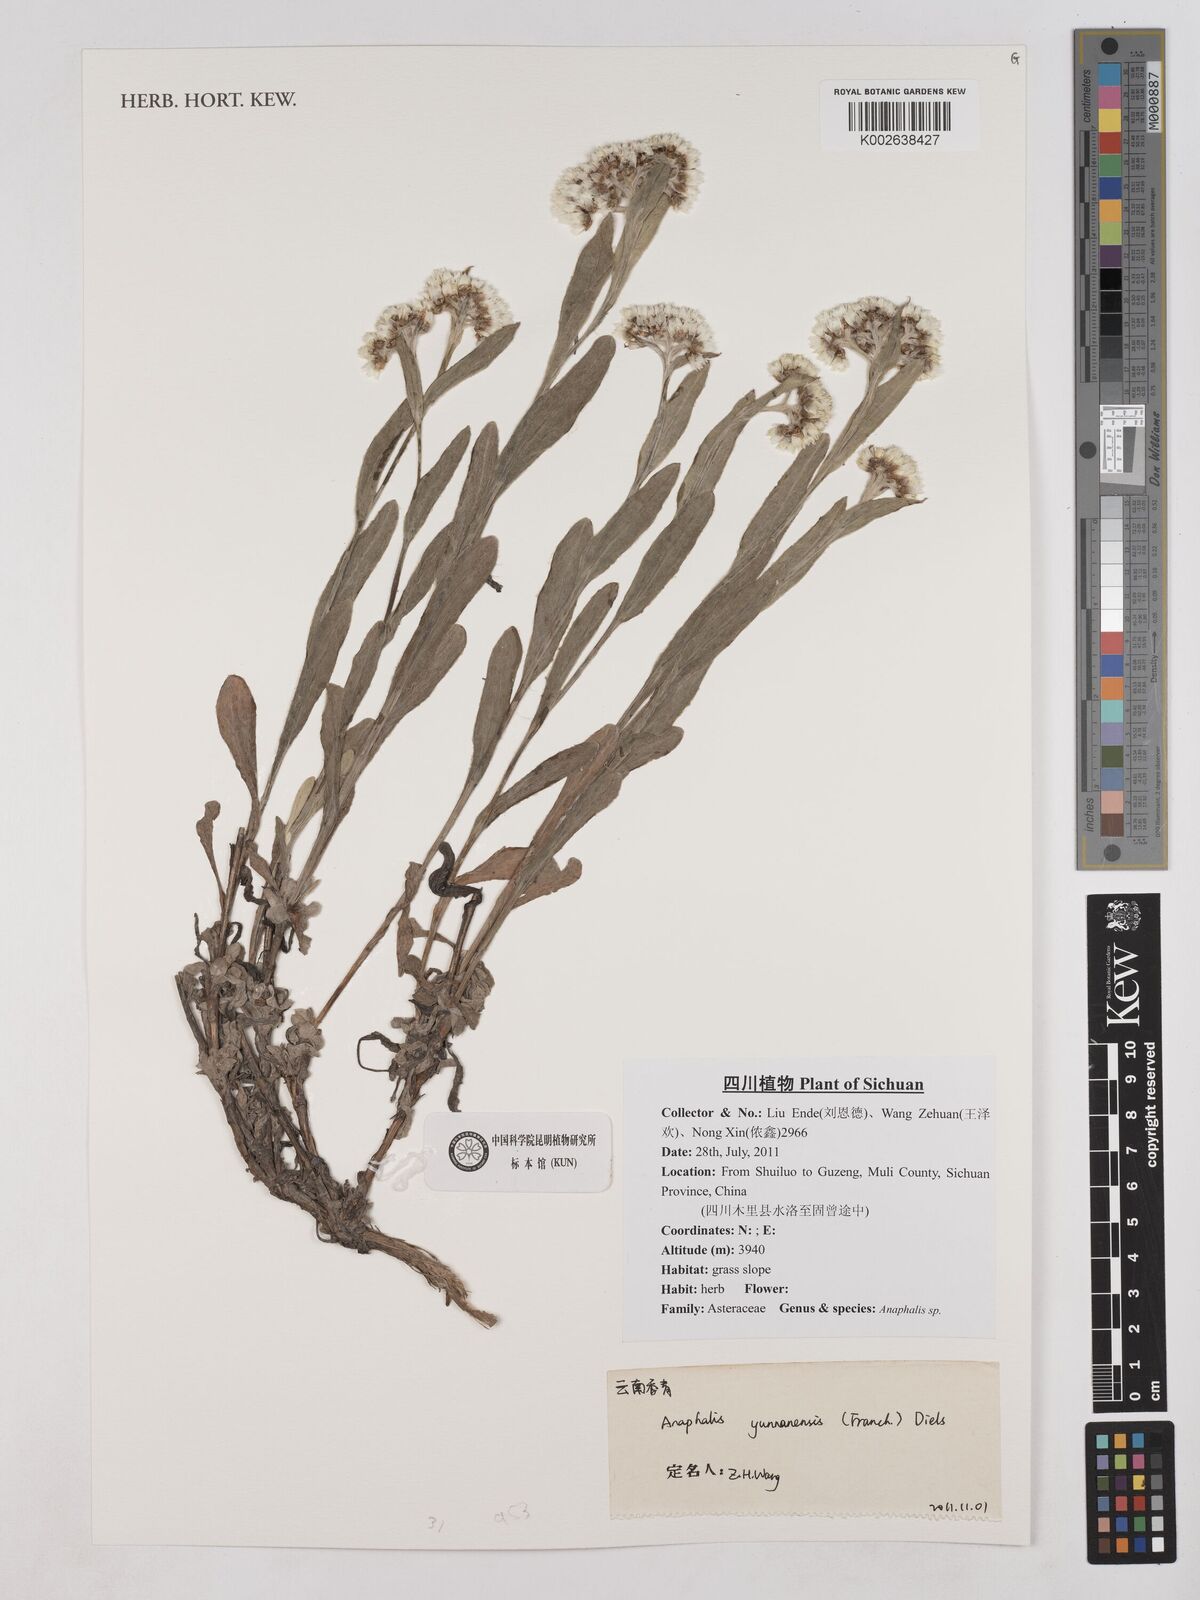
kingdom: Plantae
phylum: Tracheophyta
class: Magnoliopsida
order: Asterales
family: Asteraceae
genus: Anaphalis
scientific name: Anaphalis yunnanensis
